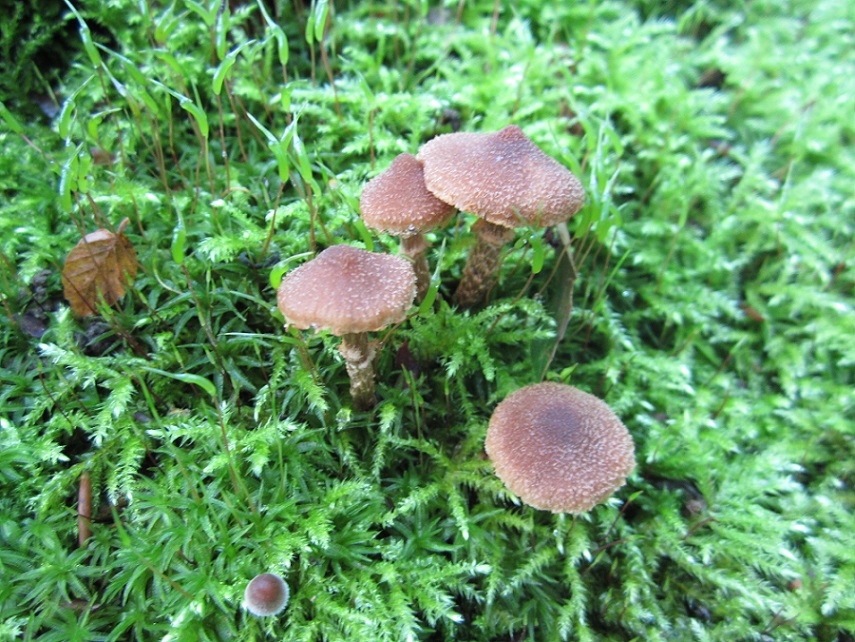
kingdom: Fungi
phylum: Basidiomycota
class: Agaricomycetes
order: Agaricales
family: Cortinariaceae
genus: Cortinarius
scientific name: Cortinarius quercoconicus
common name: agernskål-slørhat
